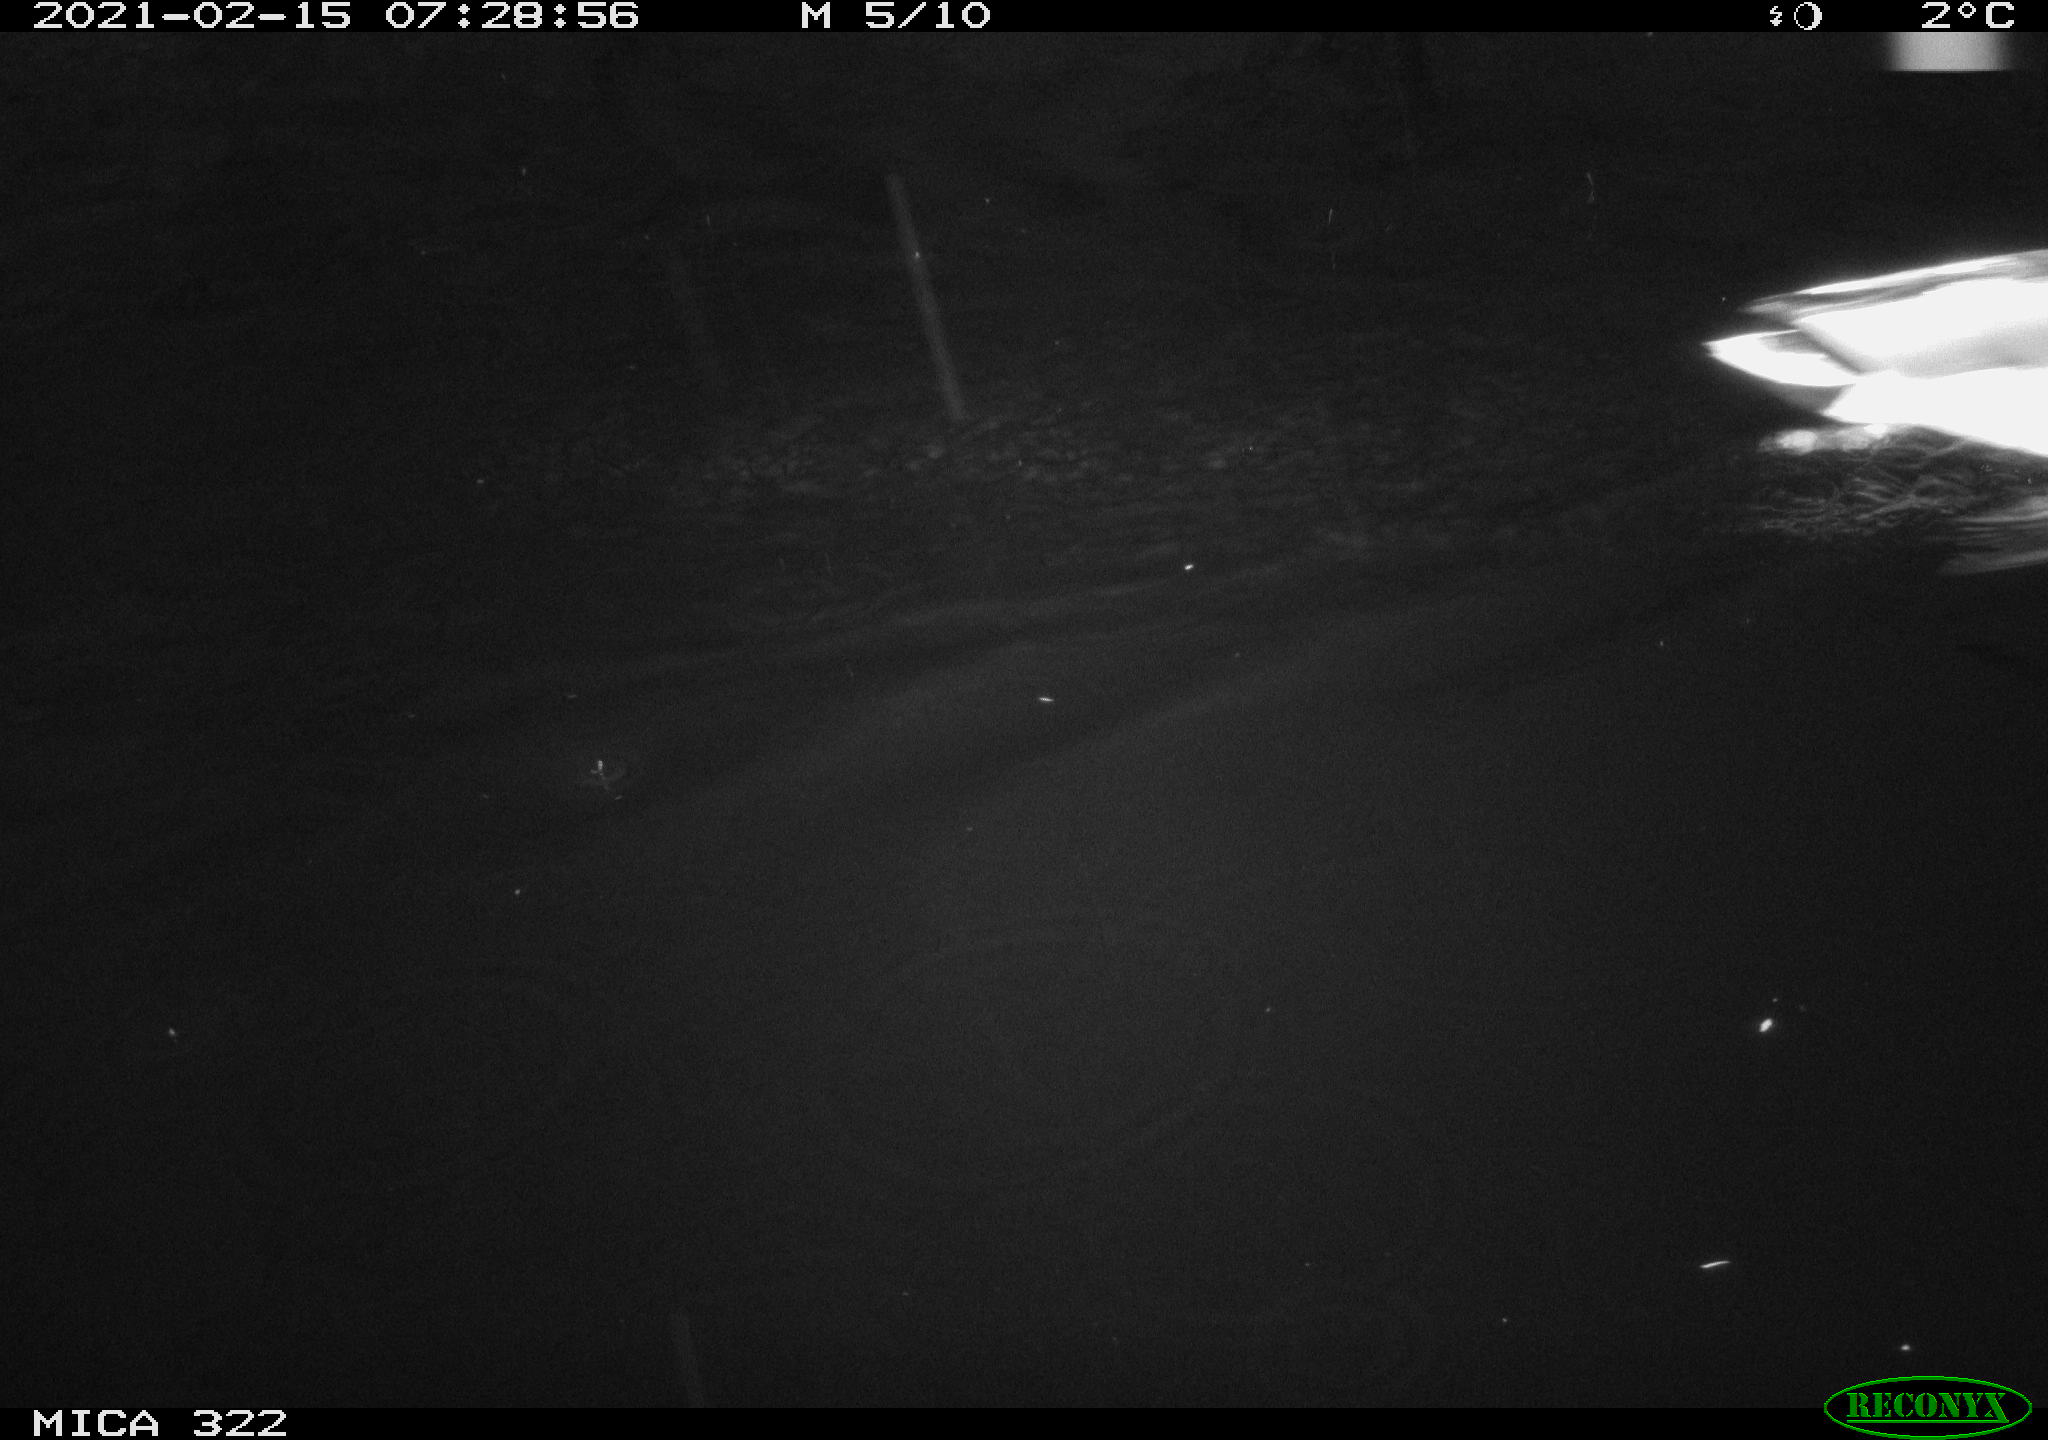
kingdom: Animalia
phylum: Chordata
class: Aves
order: Anseriformes
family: Anatidae
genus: Anas
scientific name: Anas platyrhynchos
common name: Mallard
